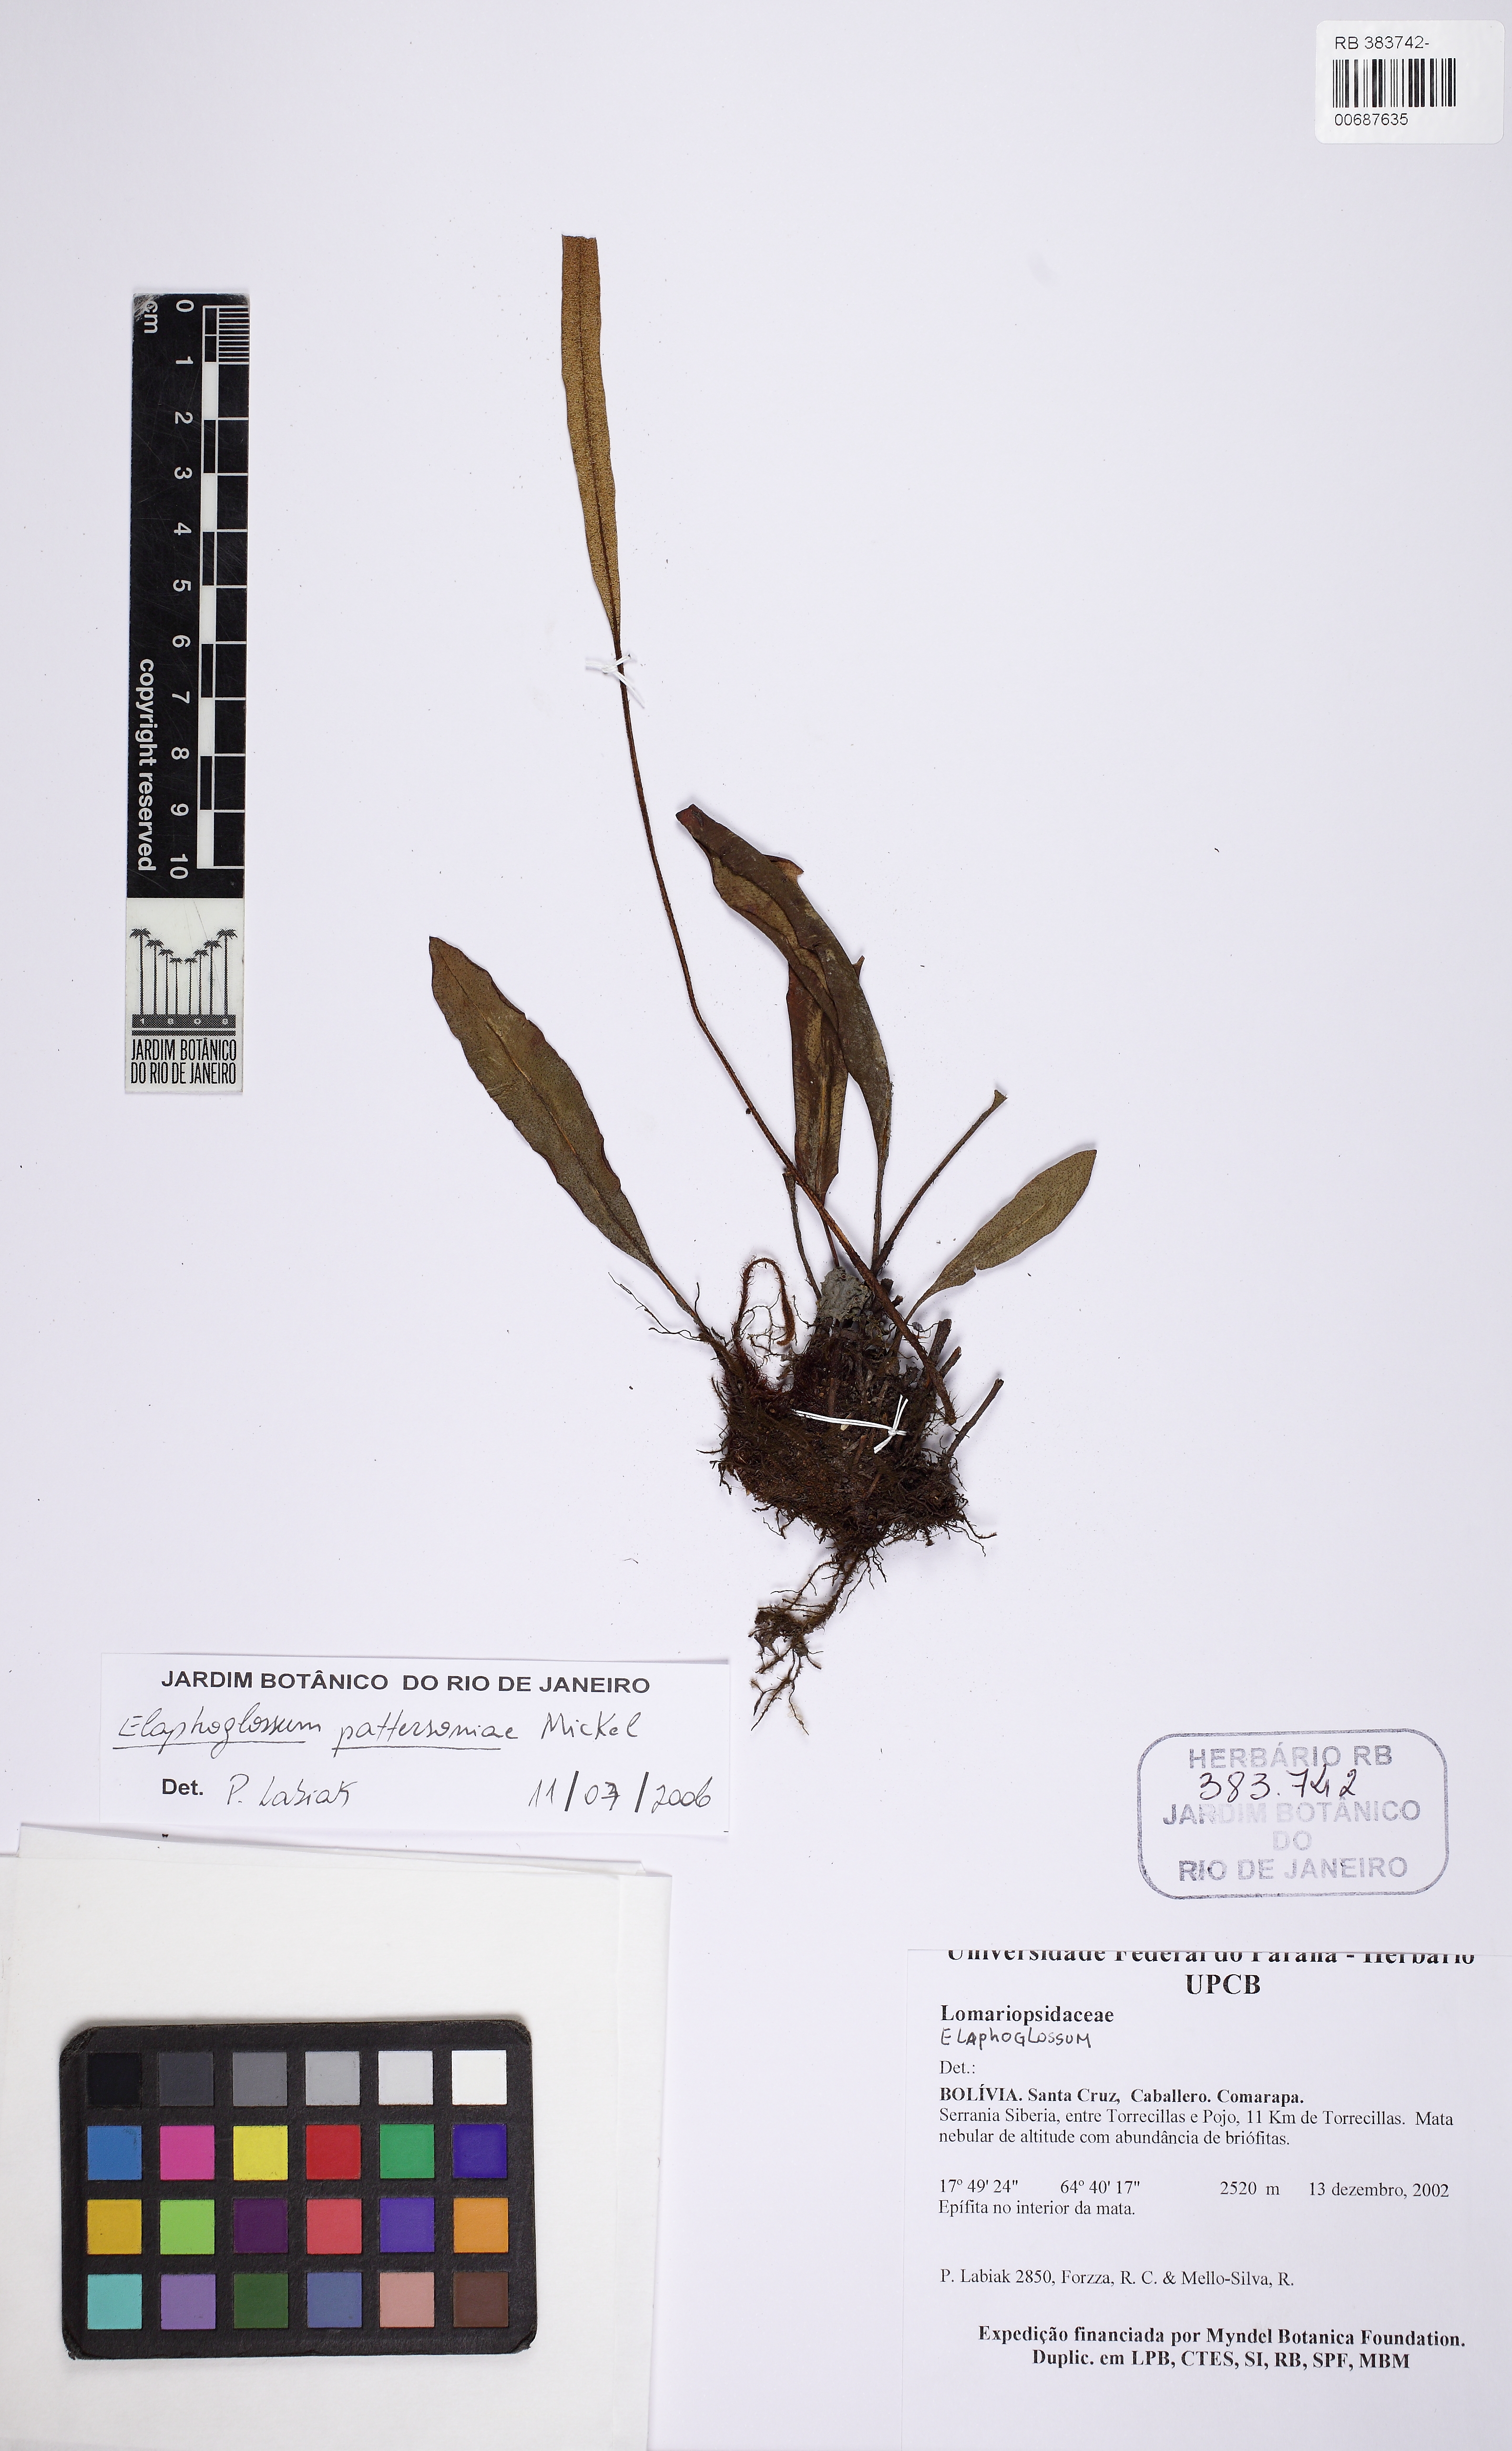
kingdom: Plantae
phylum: Tracheophyta
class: Polypodiopsida
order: Polypodiales
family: Dryopteridaceae
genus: Elaphoglossum
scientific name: Elaphoglossum pattersoniae
